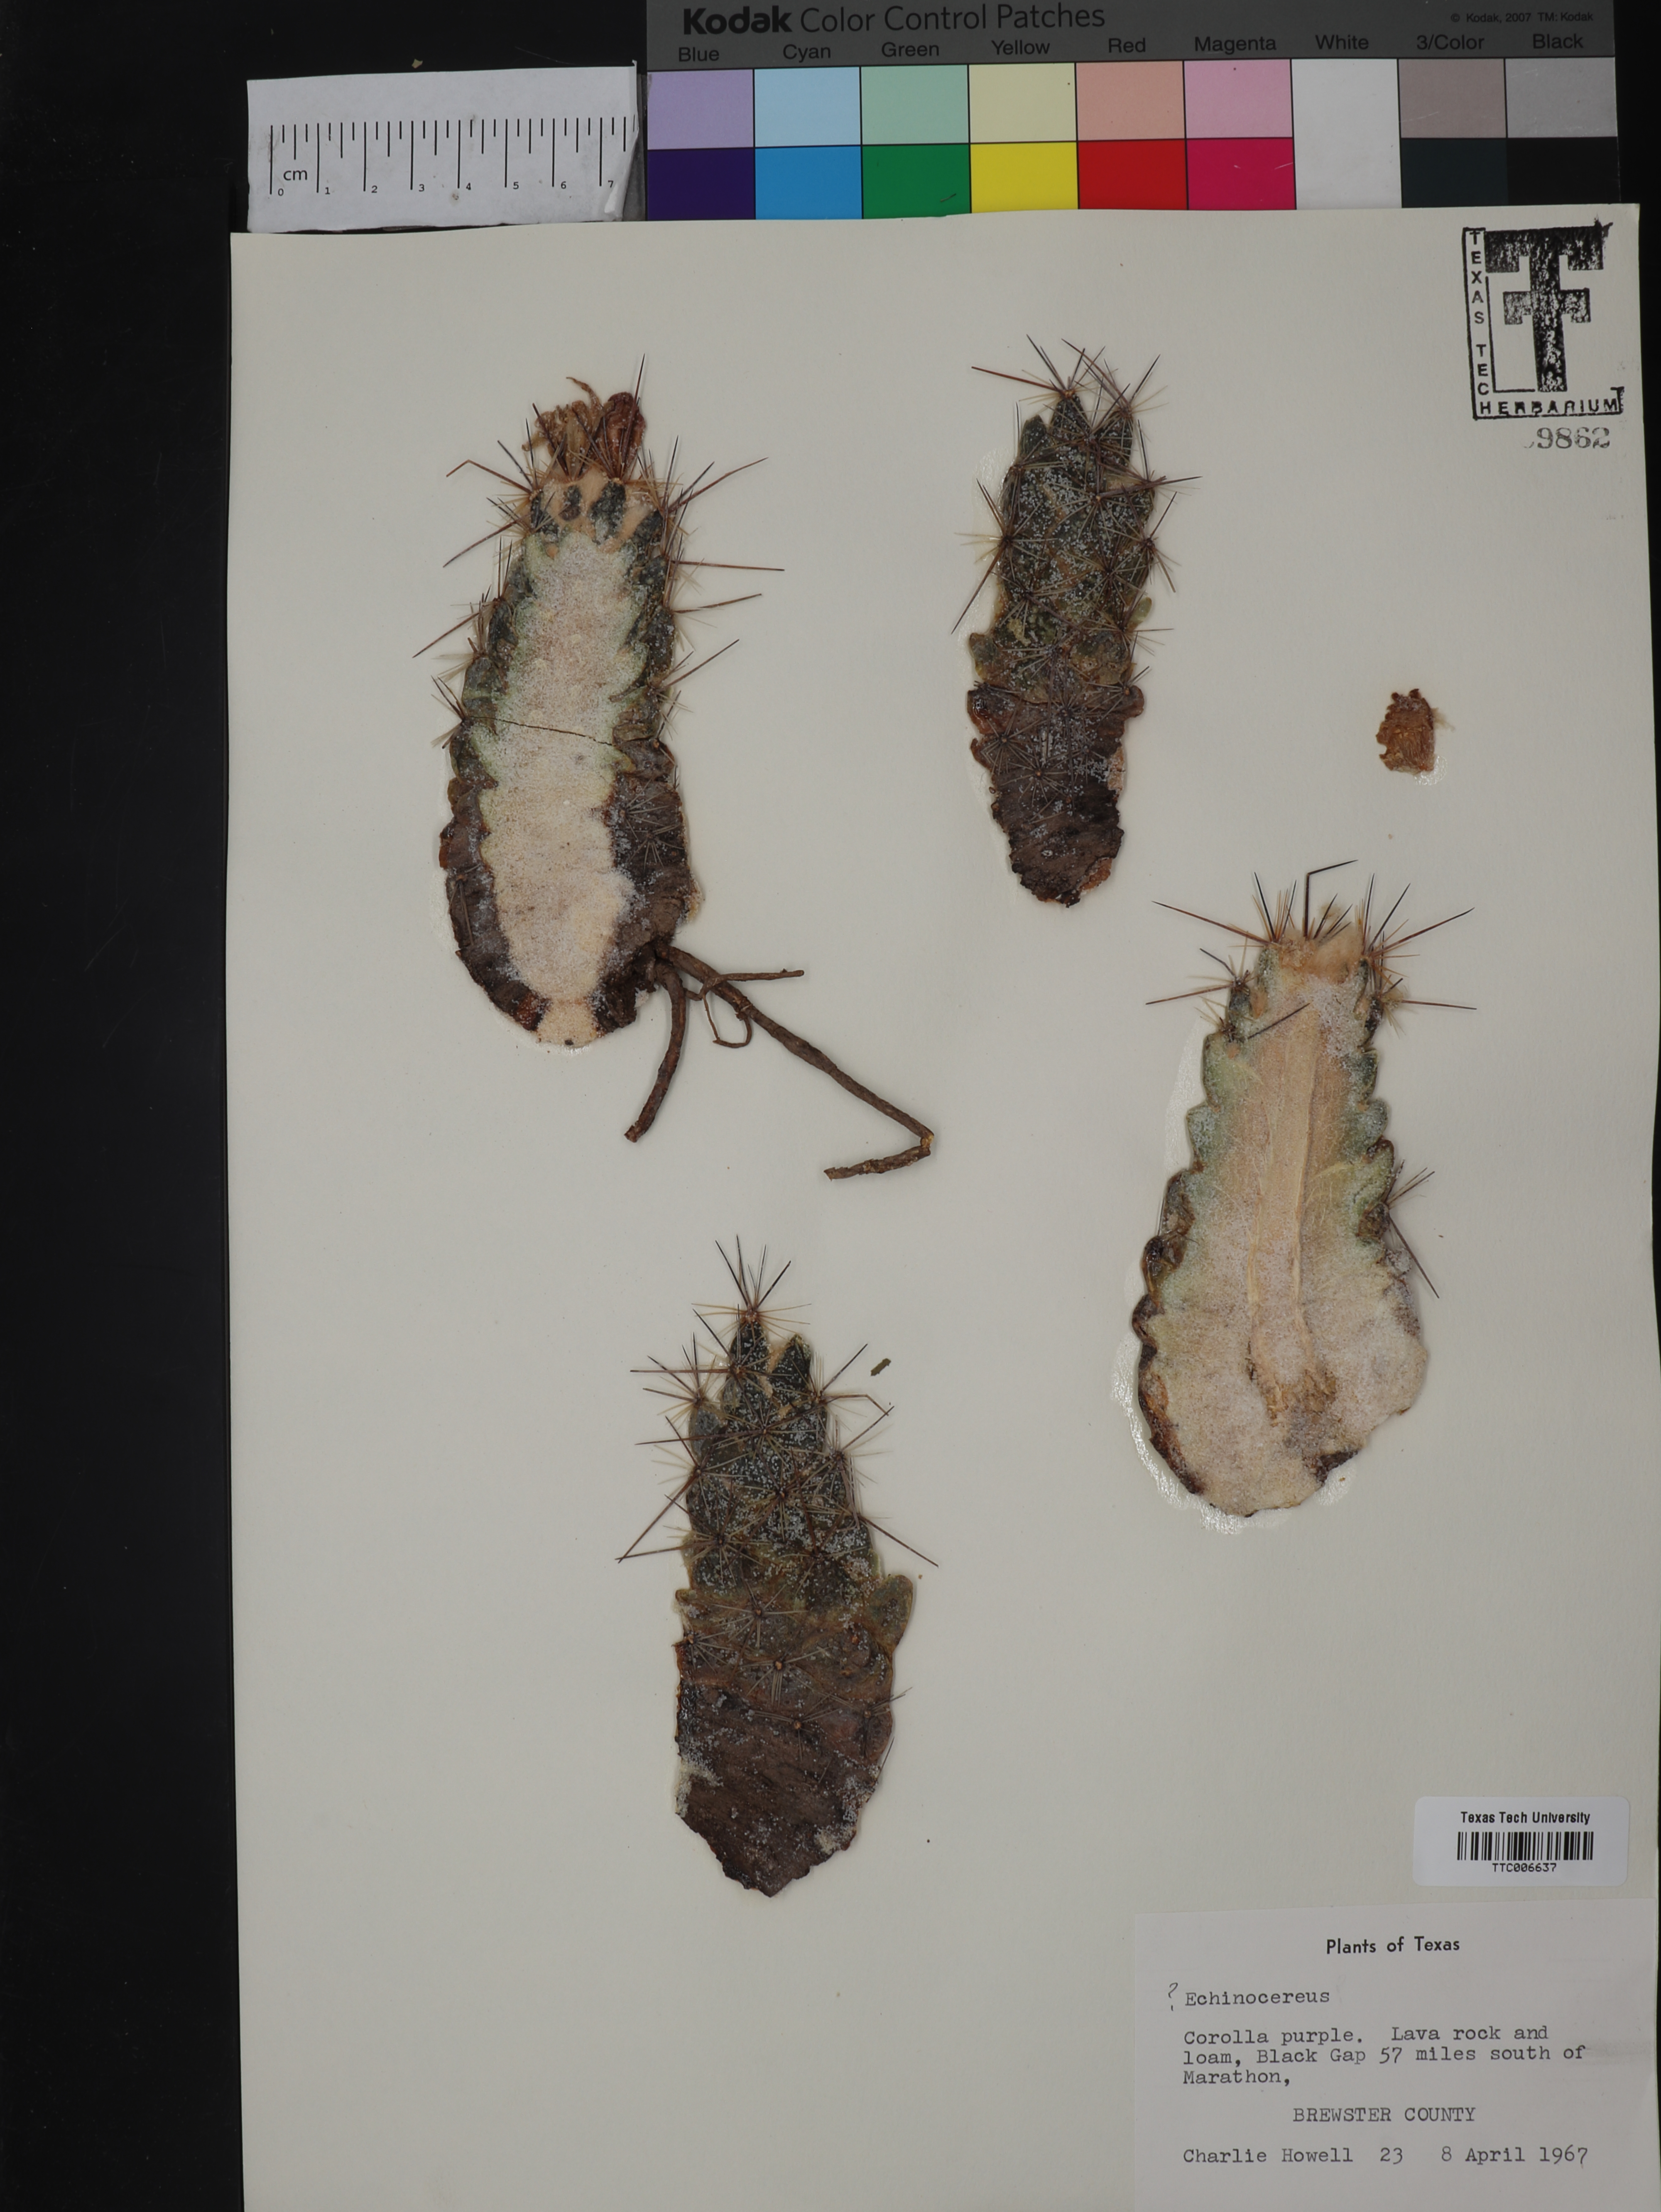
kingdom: Plantae
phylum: Tracheophyta
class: Magnoliopsida
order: Caryophyllales
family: Cactaceae
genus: Echinocereus
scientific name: Echinocereus
